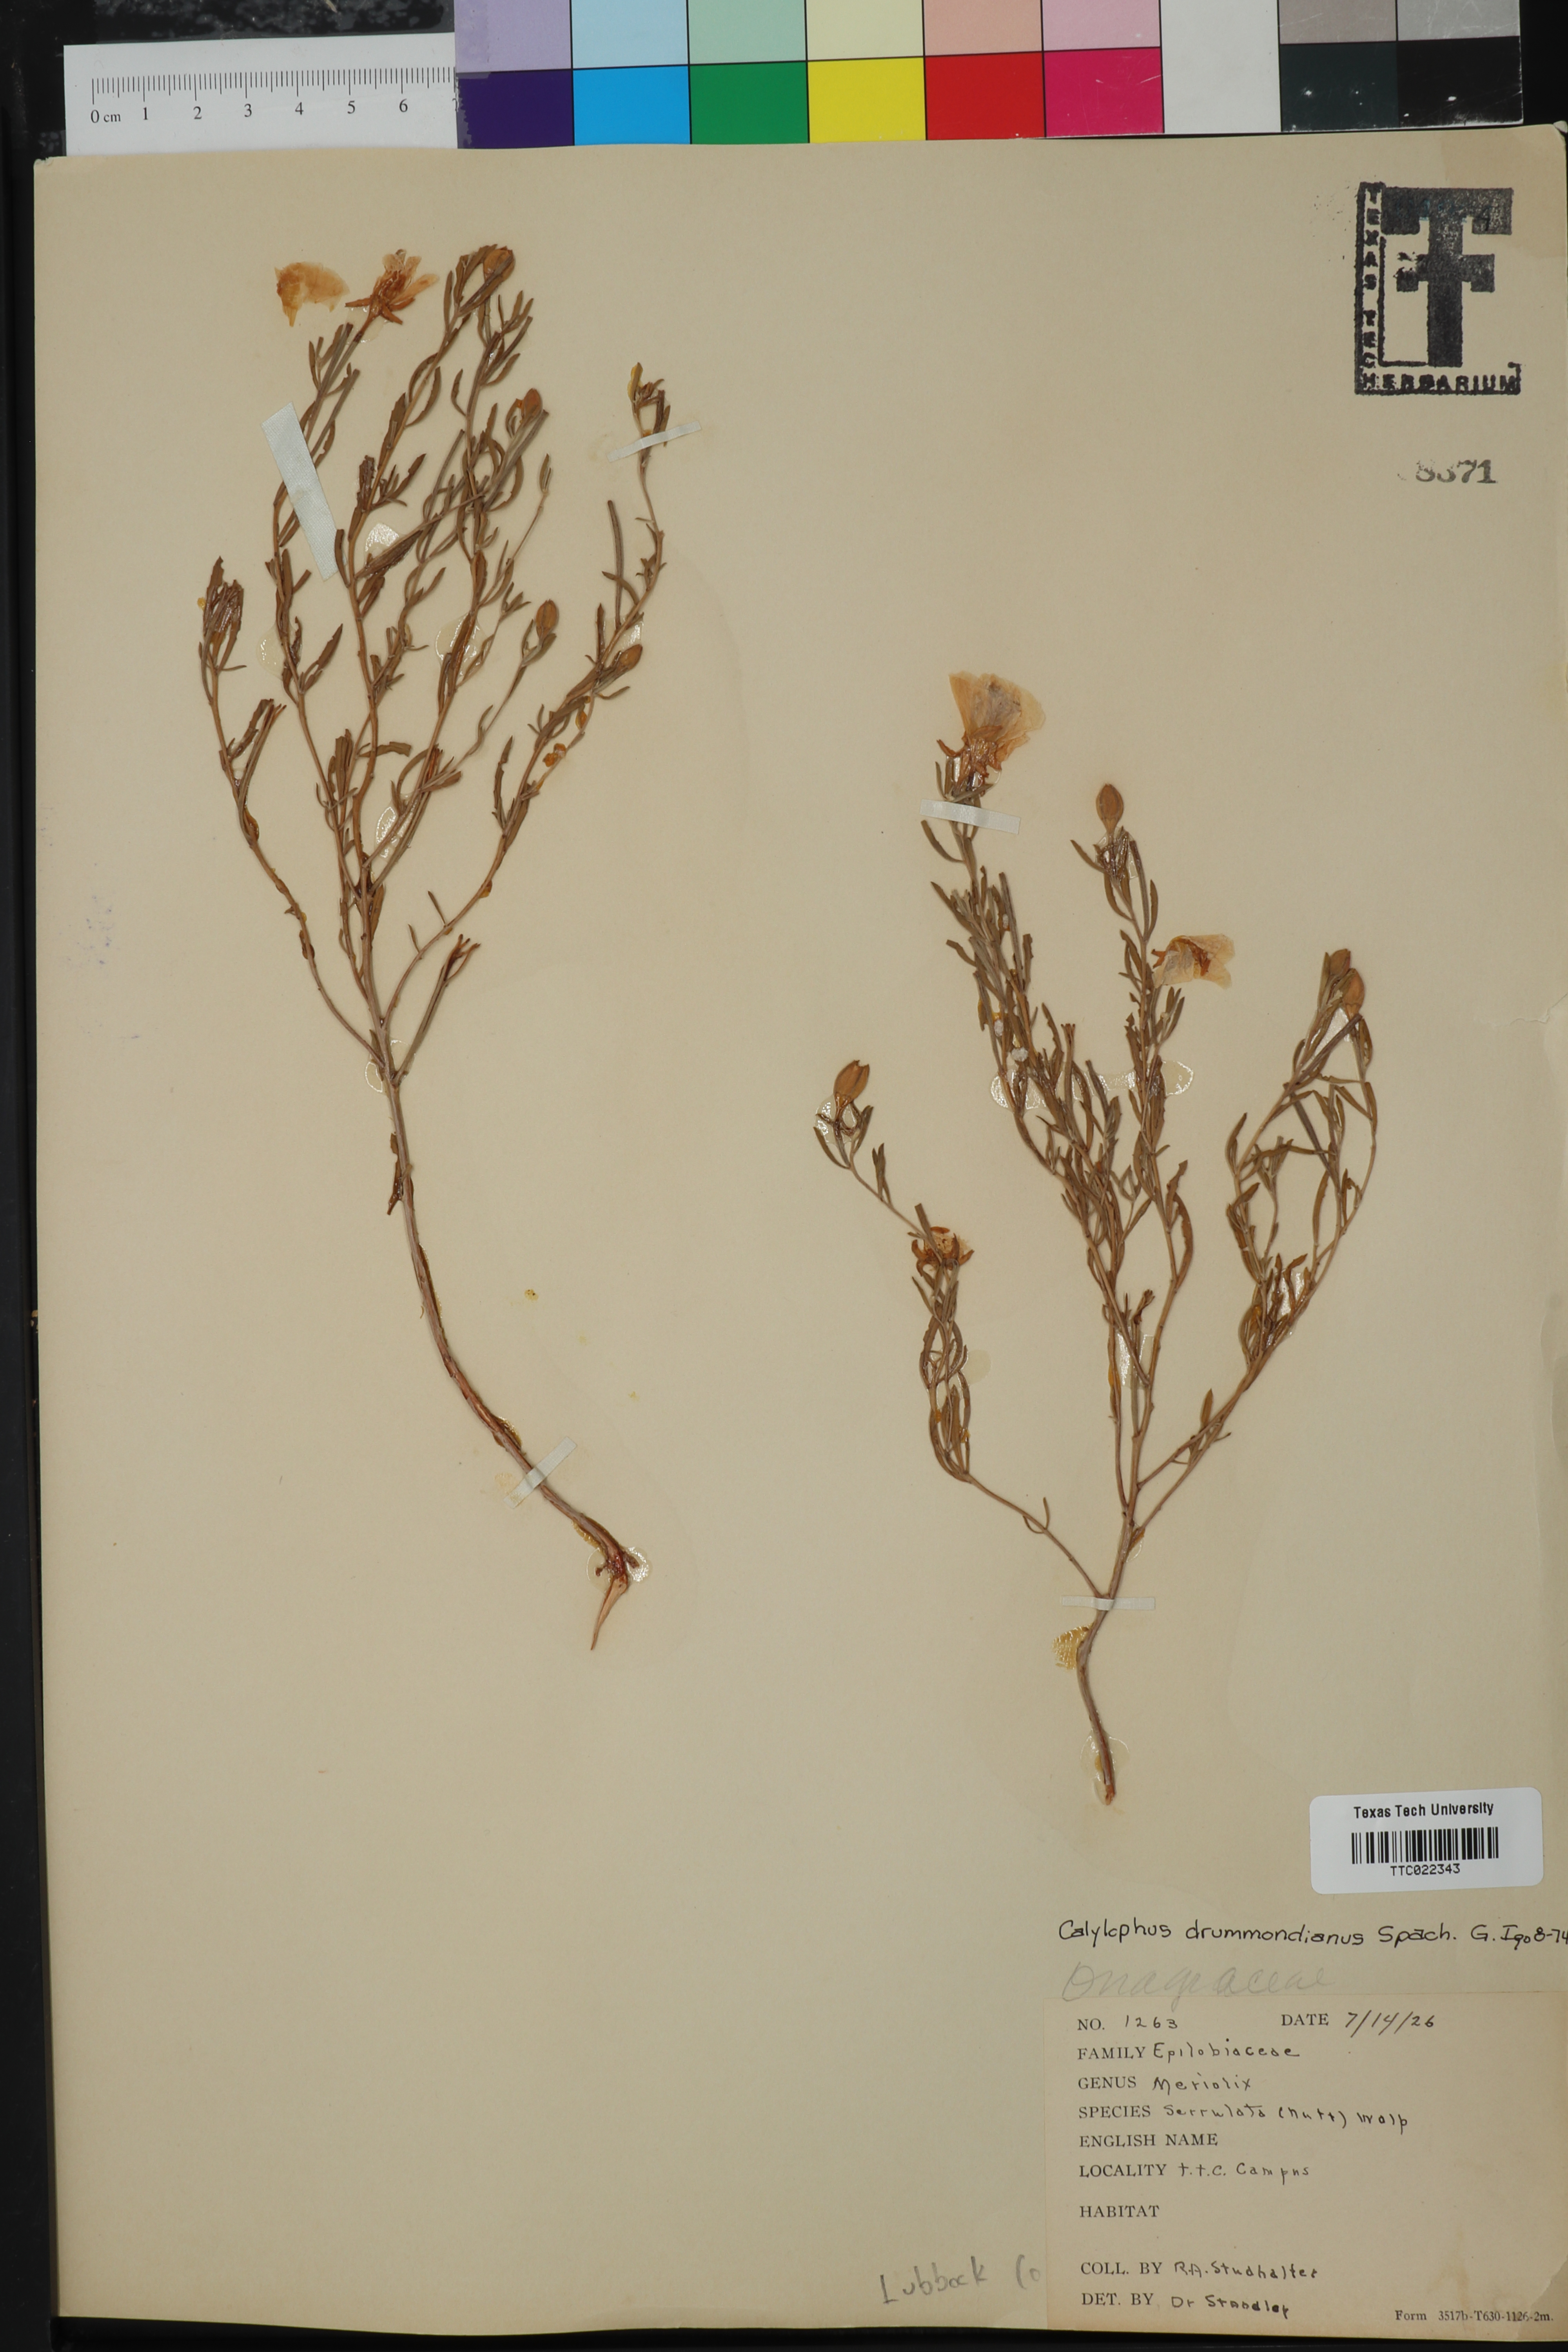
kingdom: Plantae
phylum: Tracheophyta
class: Magnoliopsida
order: Myrtales
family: Onagraceae
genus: Oenothera
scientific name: Oenothera serrulata
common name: Half-shrub calylophus
